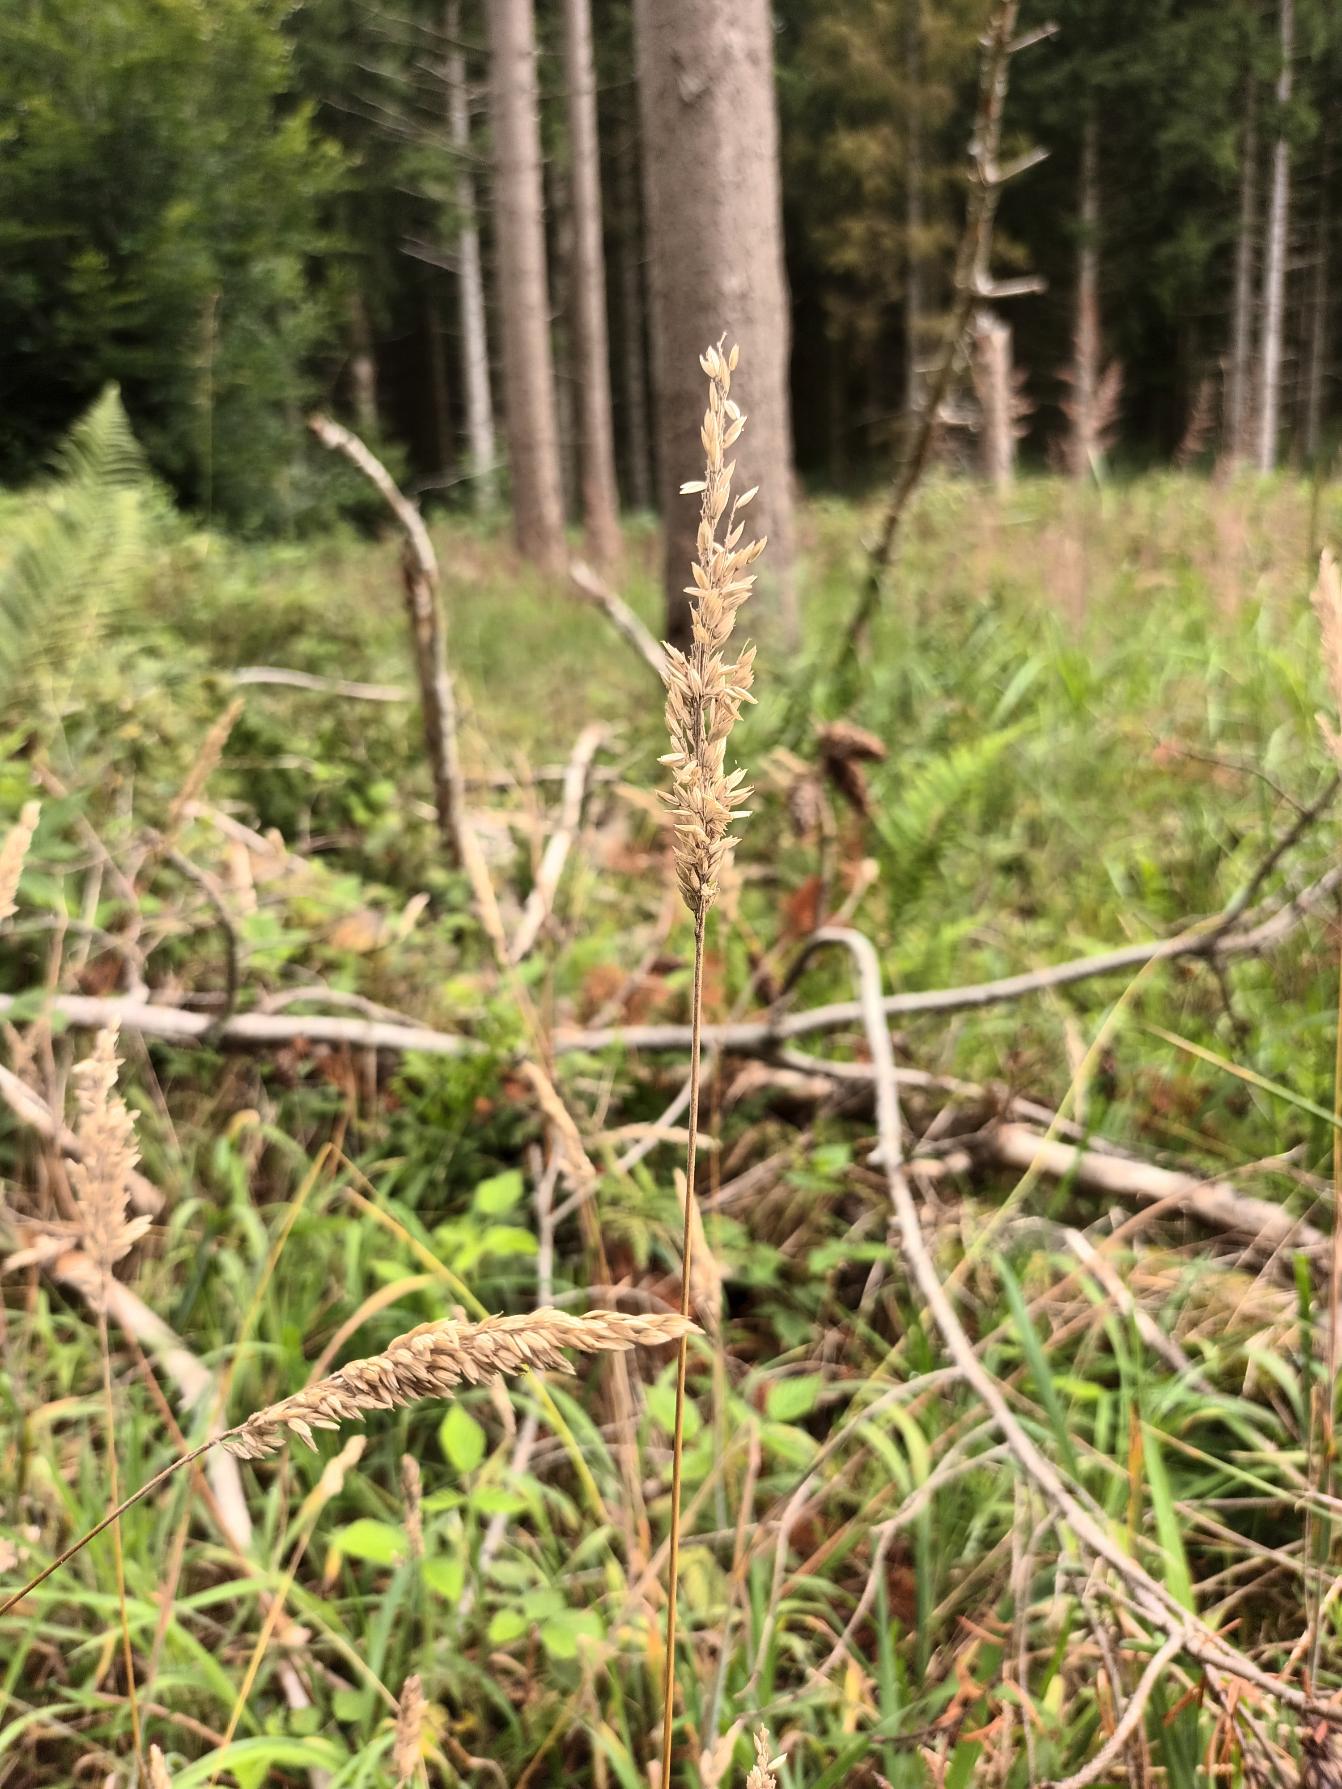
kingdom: Plantae
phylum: Tracheophyta
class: Liliopsida
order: Poales
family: Poaceae
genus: Holcus
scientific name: Holcus lanatus
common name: Fløjlsgræs
